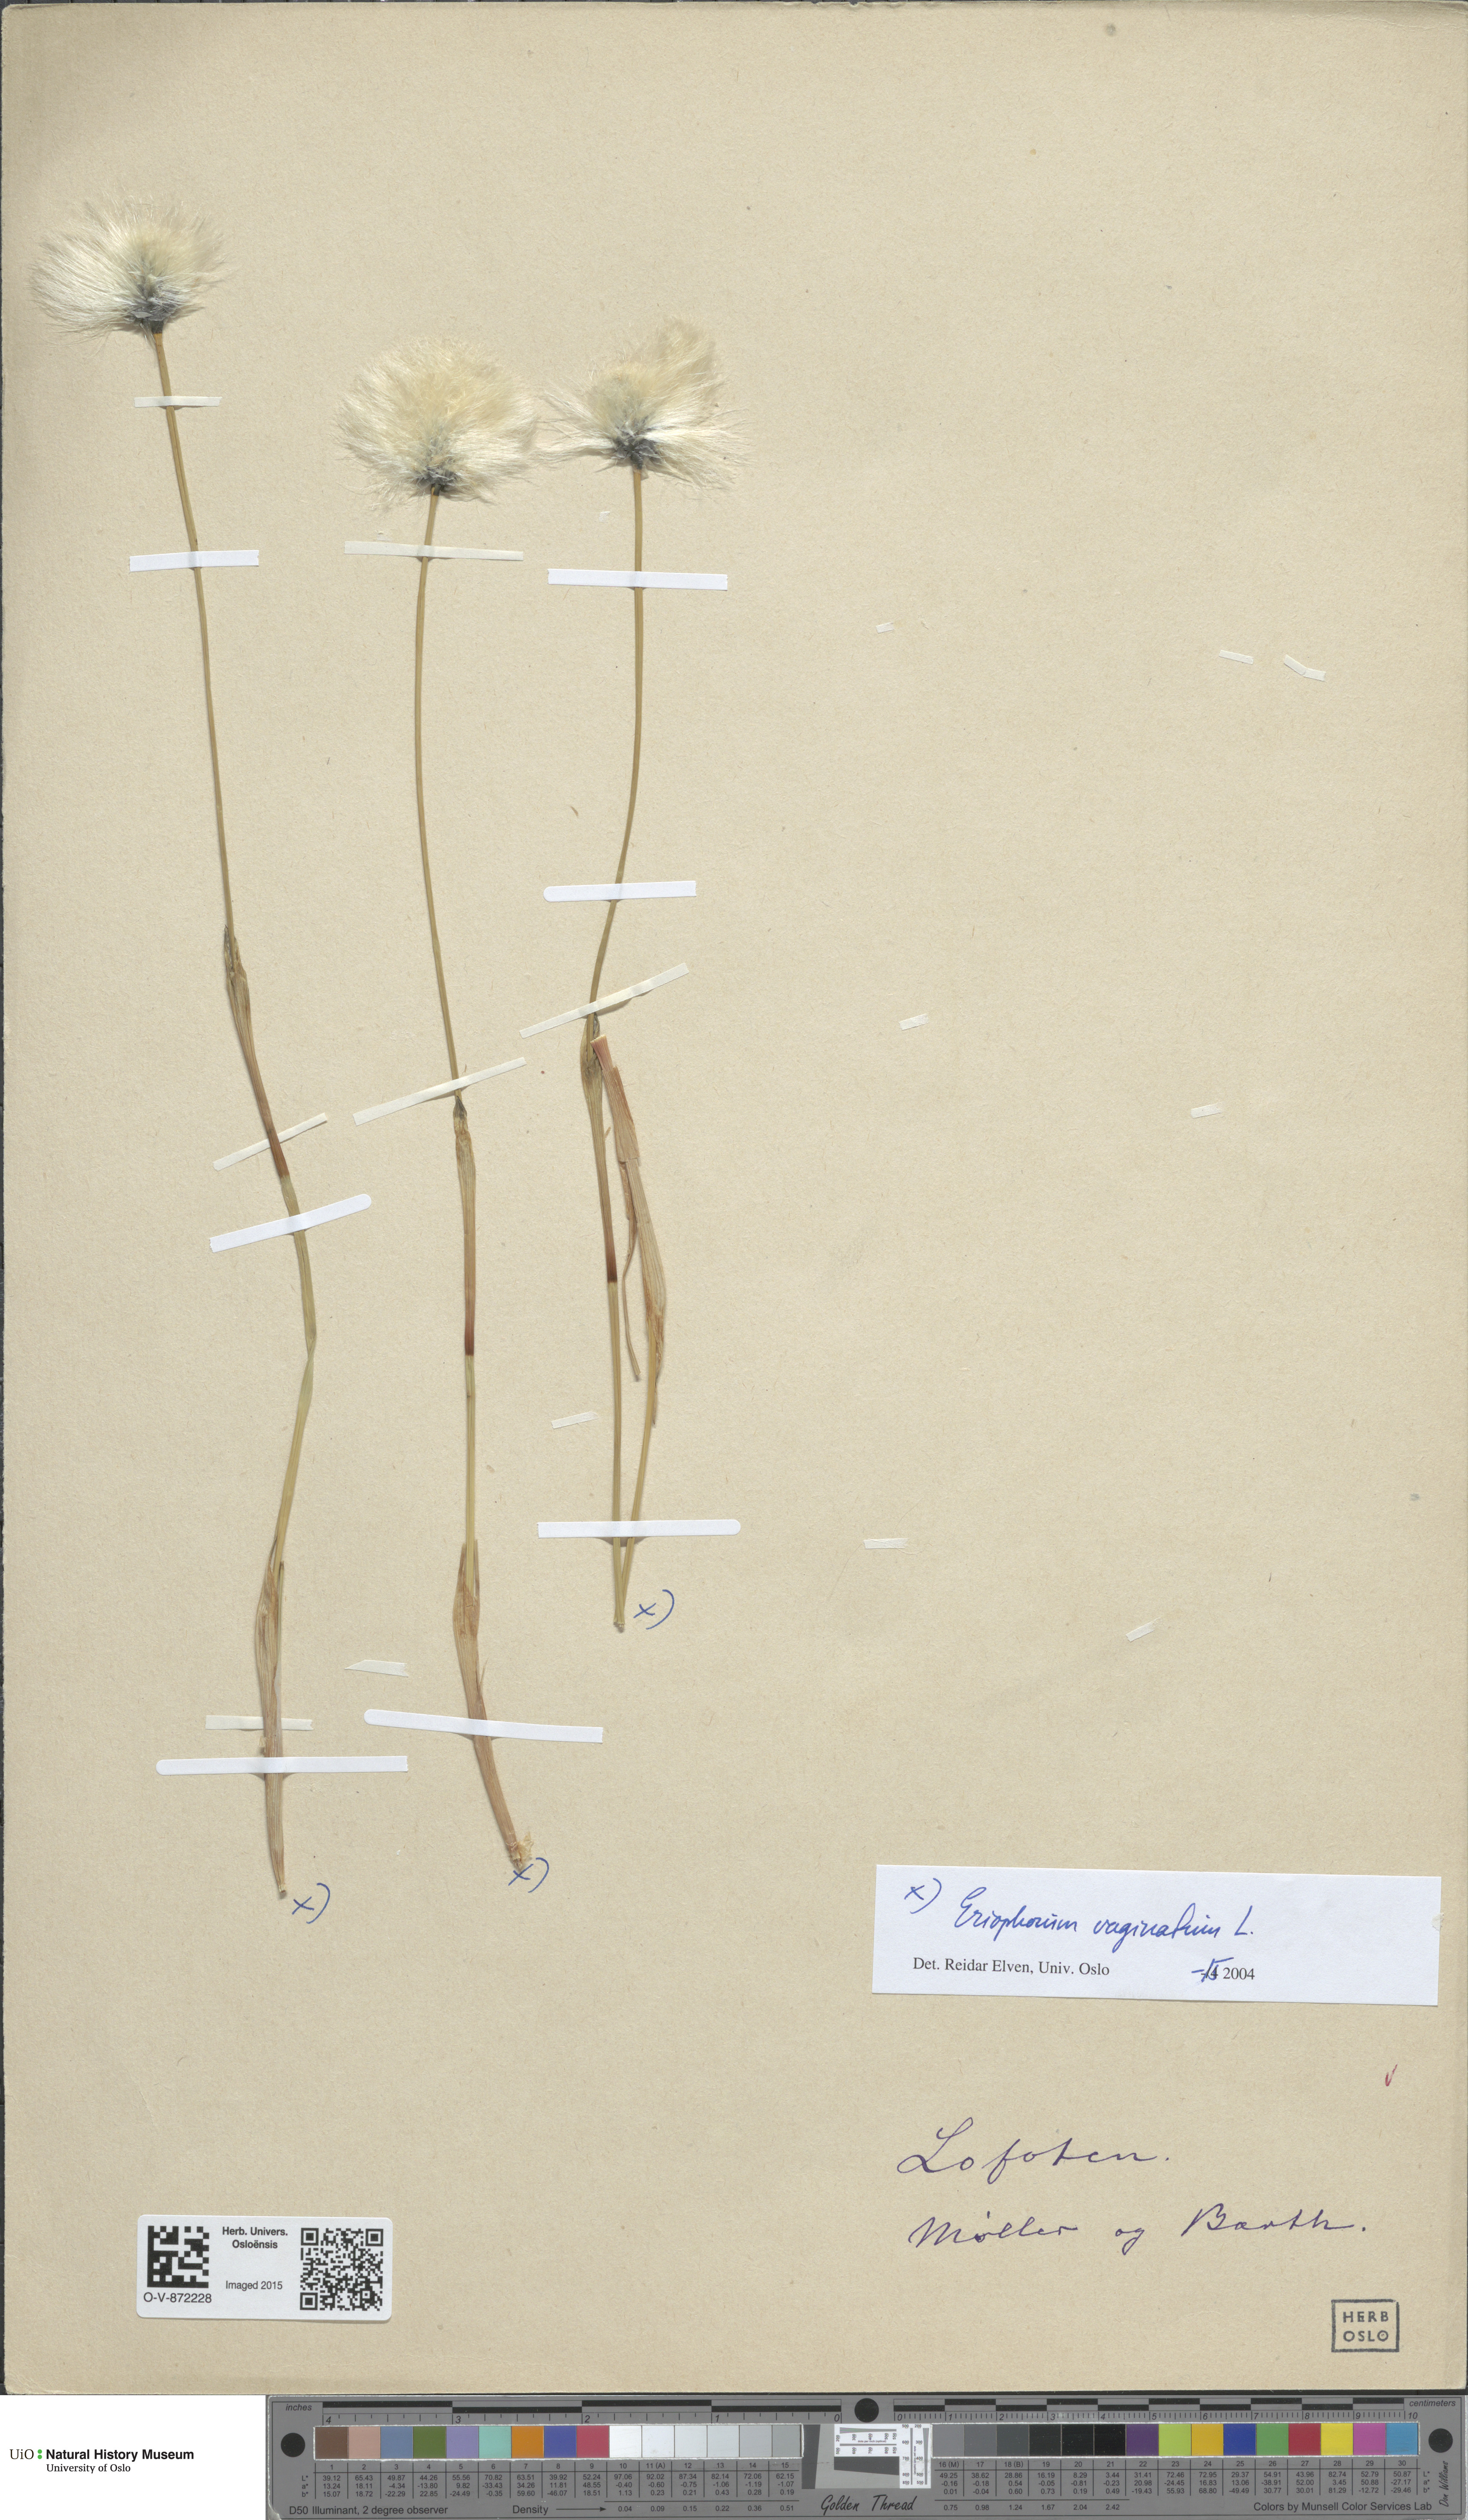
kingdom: Plantae
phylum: Tracheophyta
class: Liliopsida
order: Poales
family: Cyperaceae
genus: Eriophorum
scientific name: Eriophorum vaginatum
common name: Hare's-tail cottongrass
